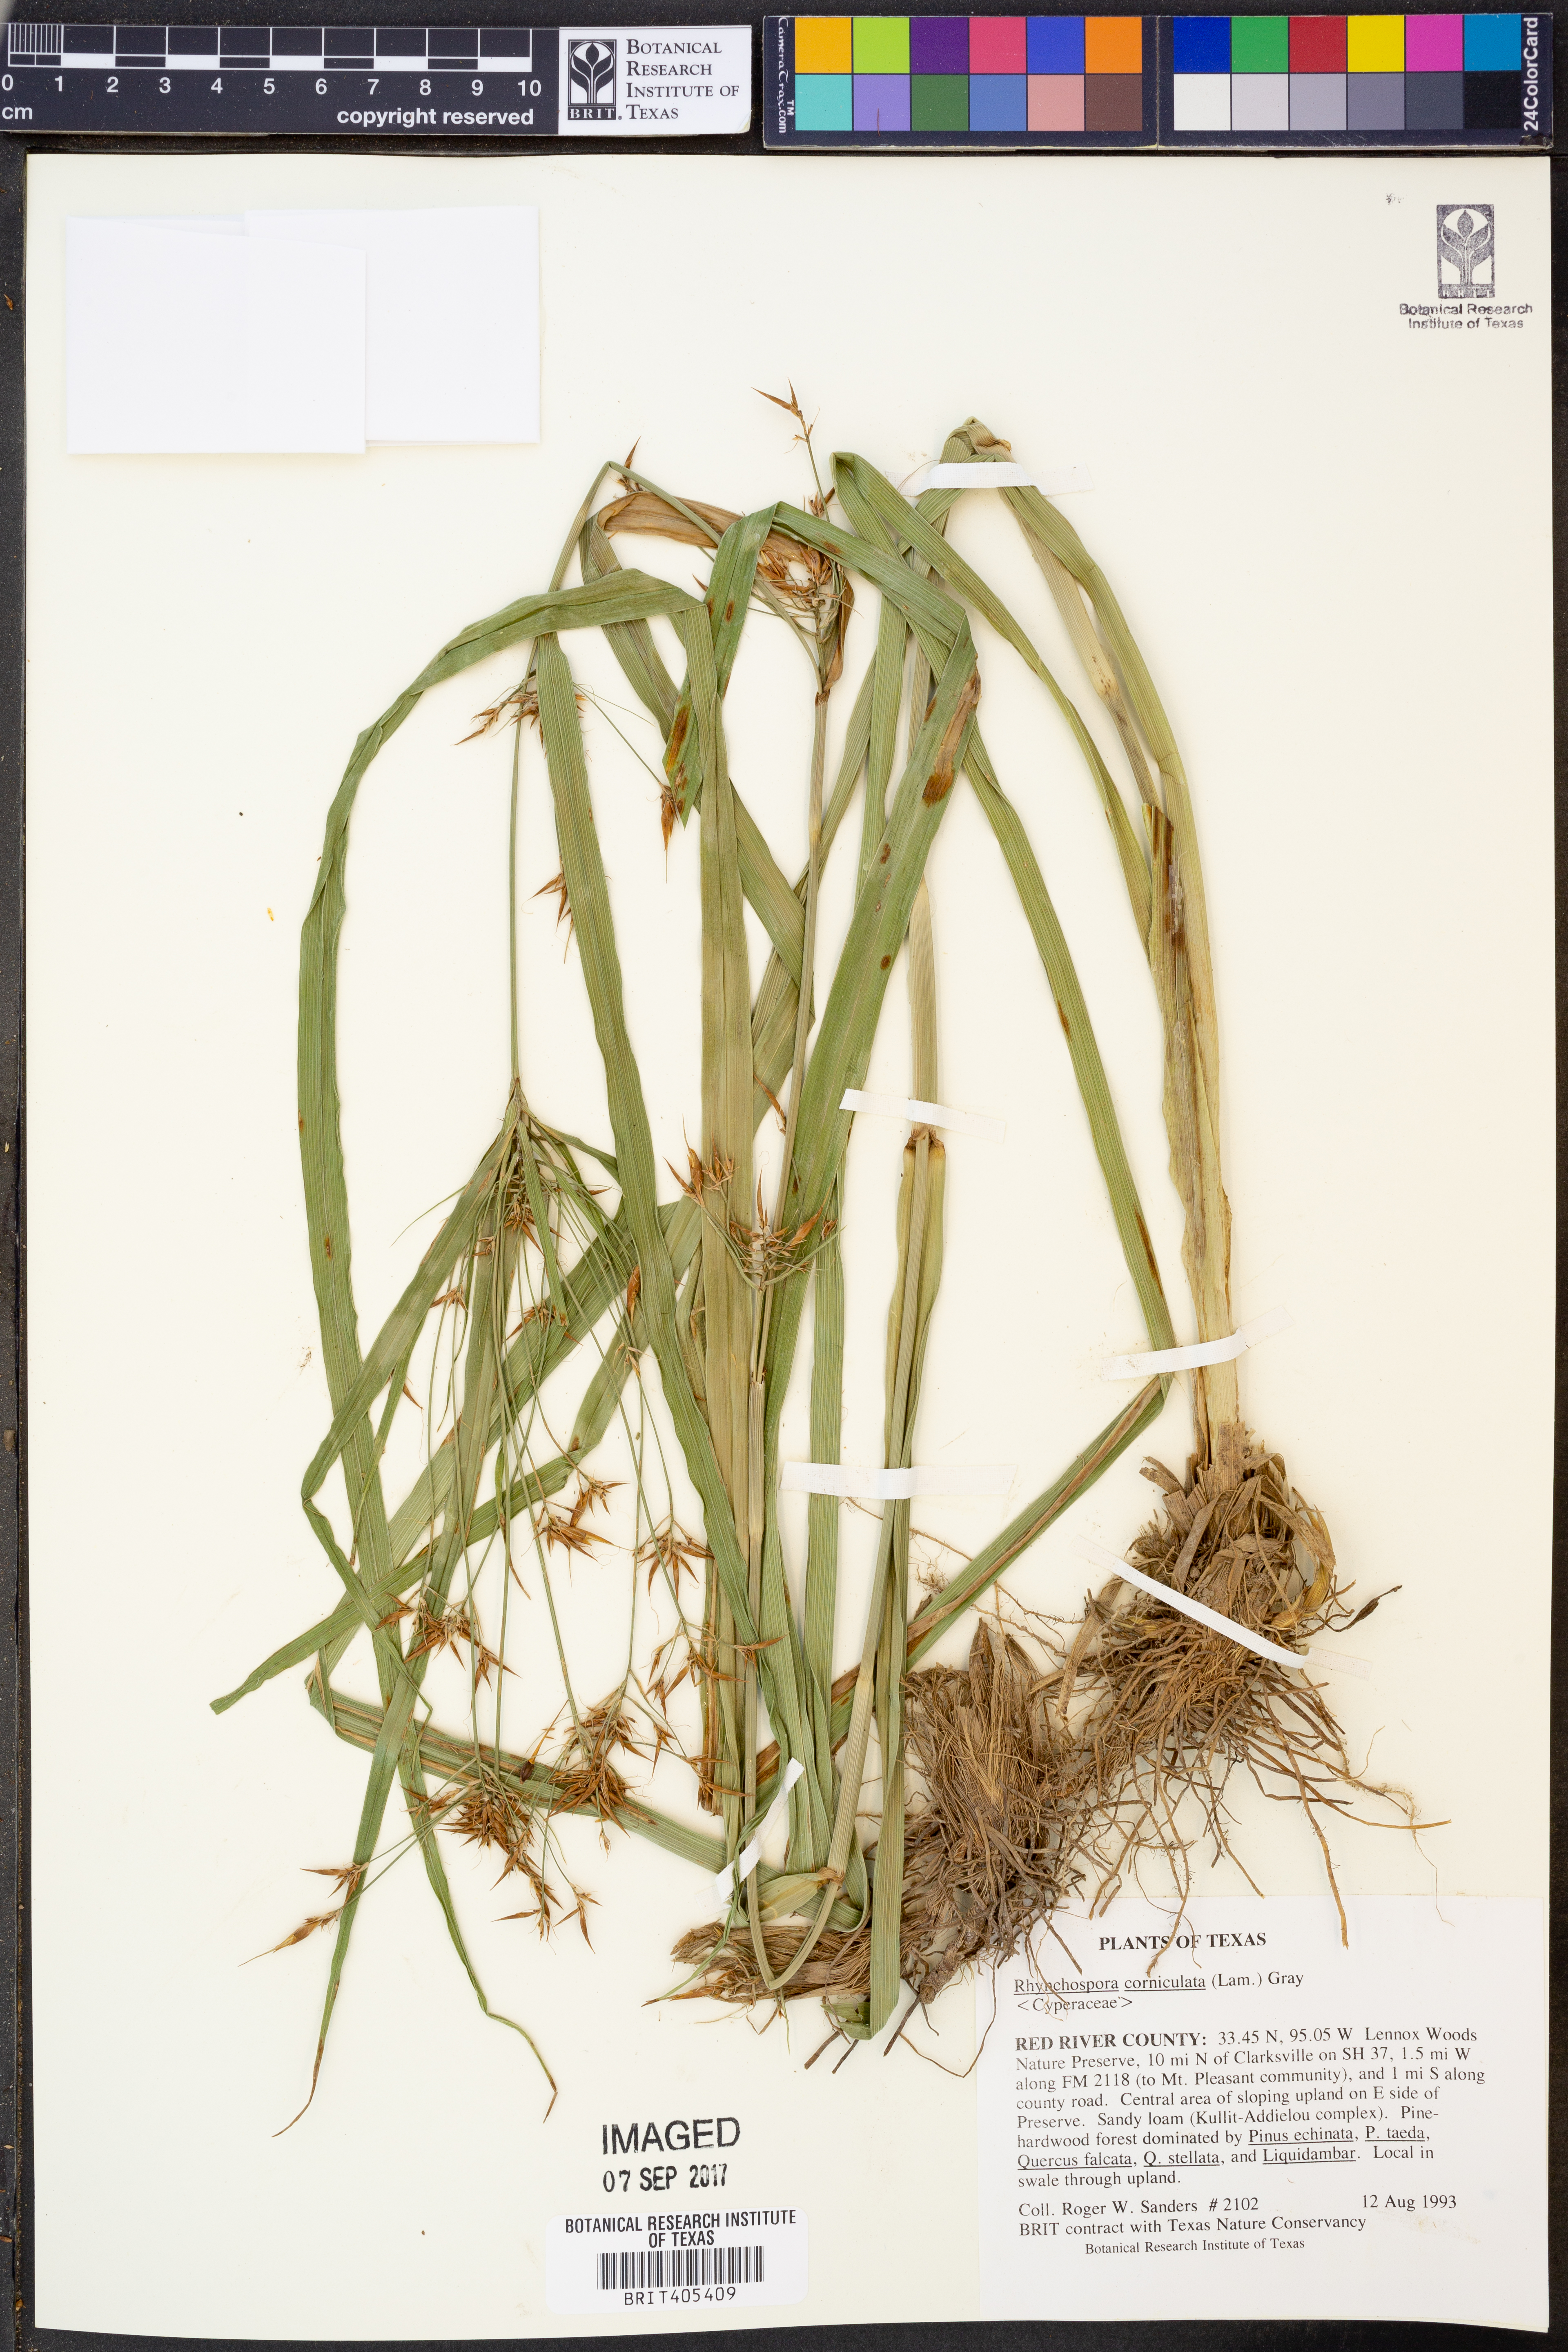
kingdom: Plantae
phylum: Tracheophyta
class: Liliopsida
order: Poales
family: Cyperaceae
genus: Rhynchospora
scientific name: Rhynchospora corniculata
